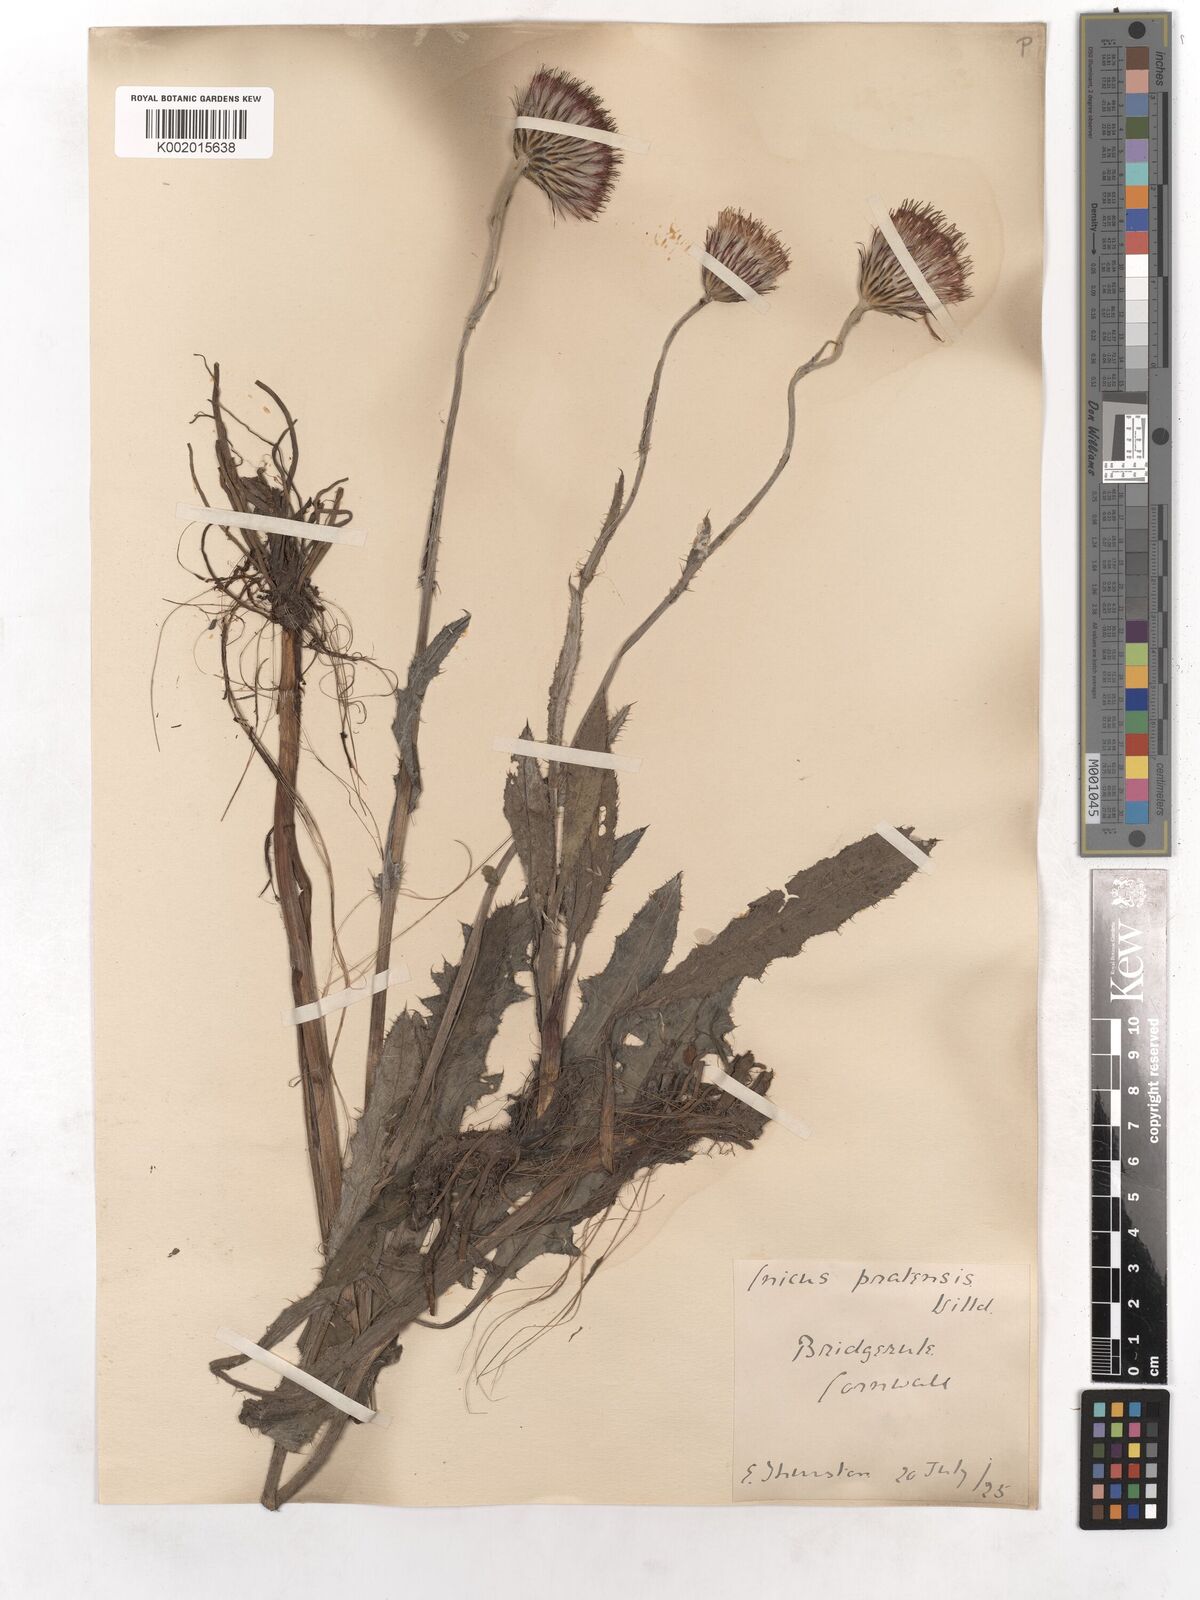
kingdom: Plantae
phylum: Tracheophyta
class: Magnoliopsida
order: Asterales
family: Asteraceae
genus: Cirsium
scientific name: Cirsium dissectum
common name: Meadow thistle
